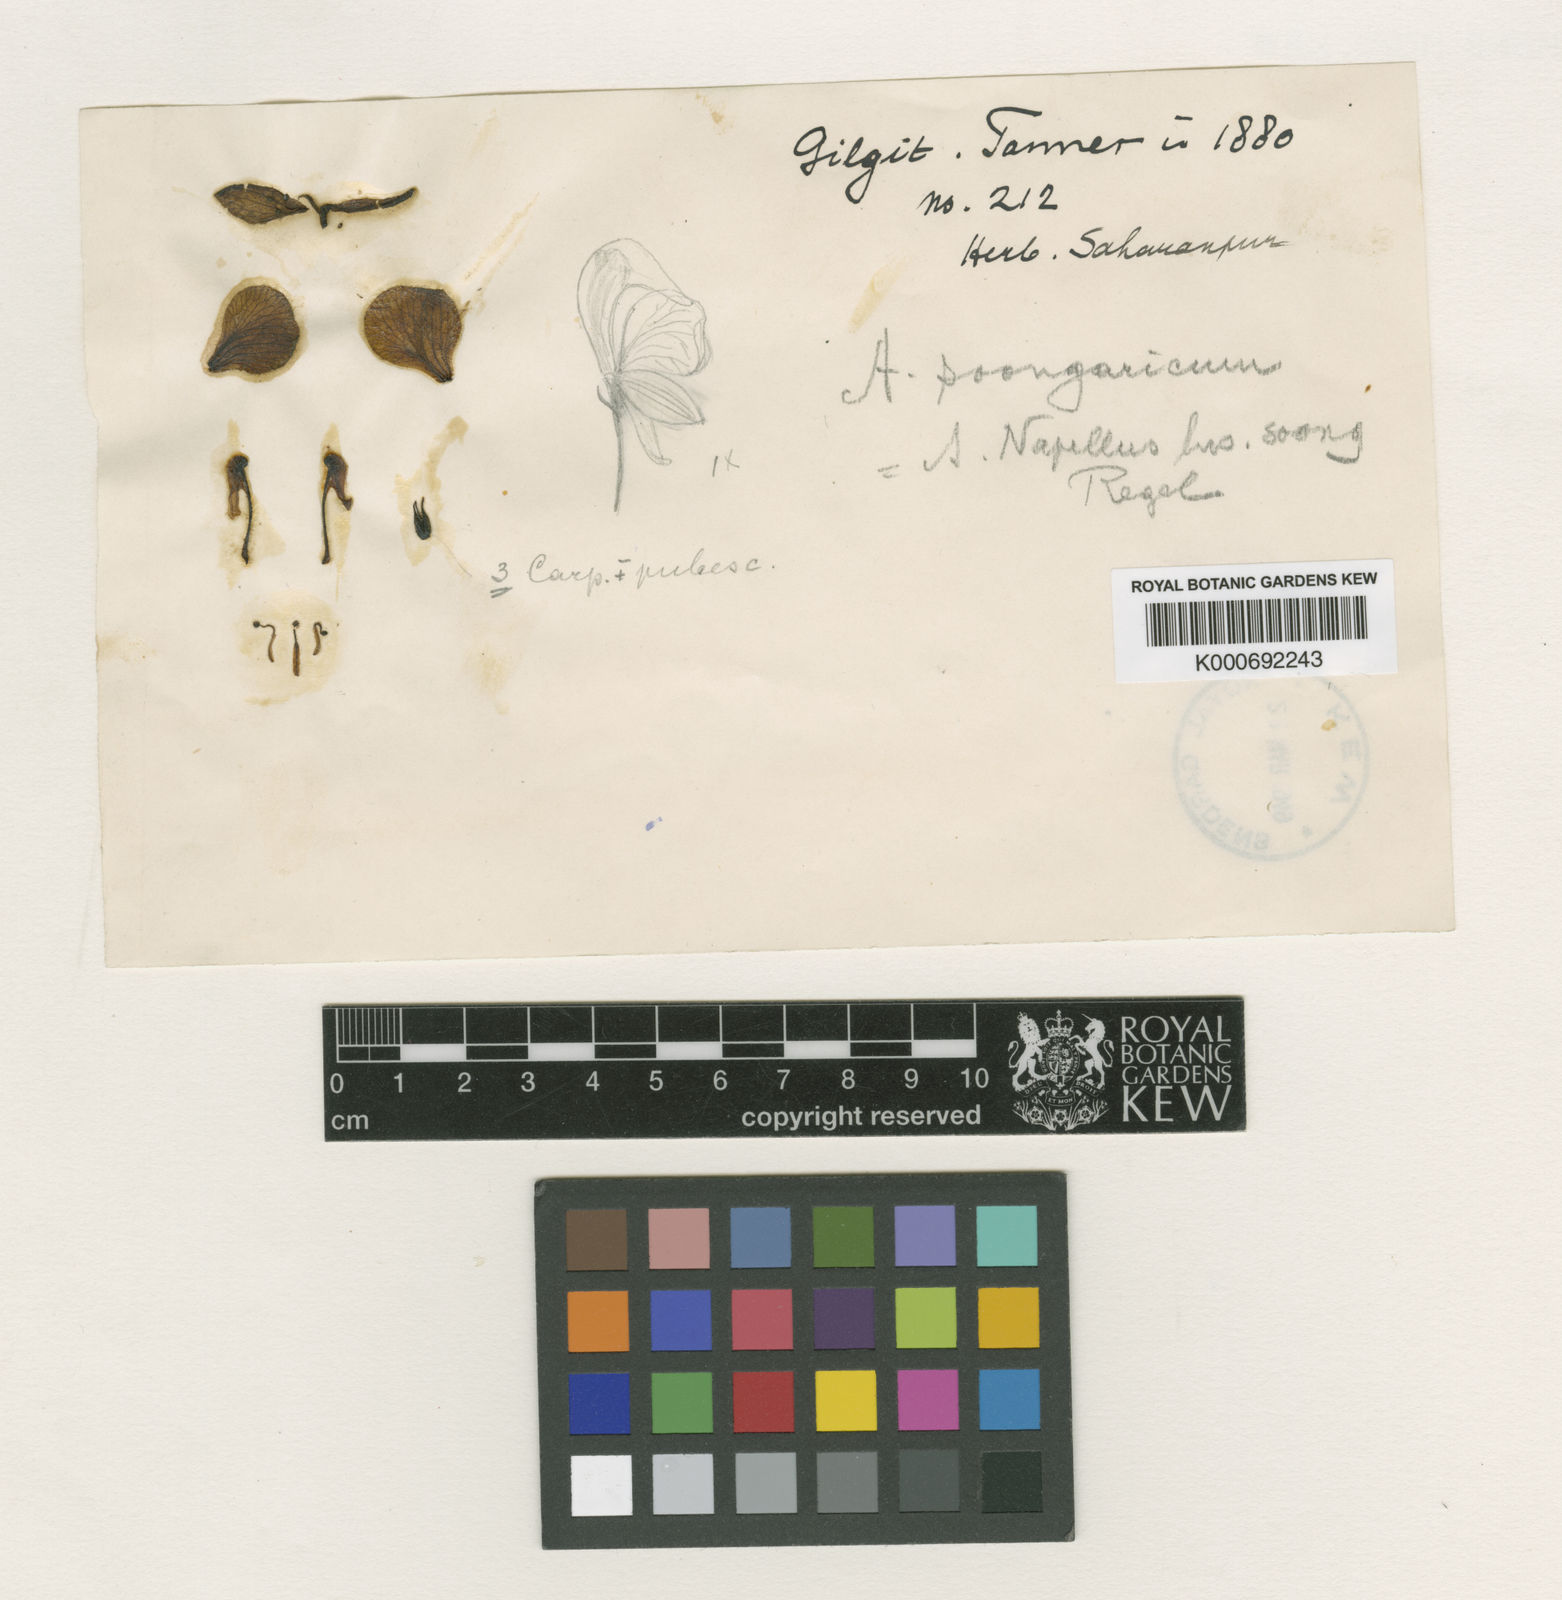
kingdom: Plantae
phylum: Tracheophyta
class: Magnoliopsida
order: Ranunculales
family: Ranunculaceae
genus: Aconitum
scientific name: Aconitum soongaricum
